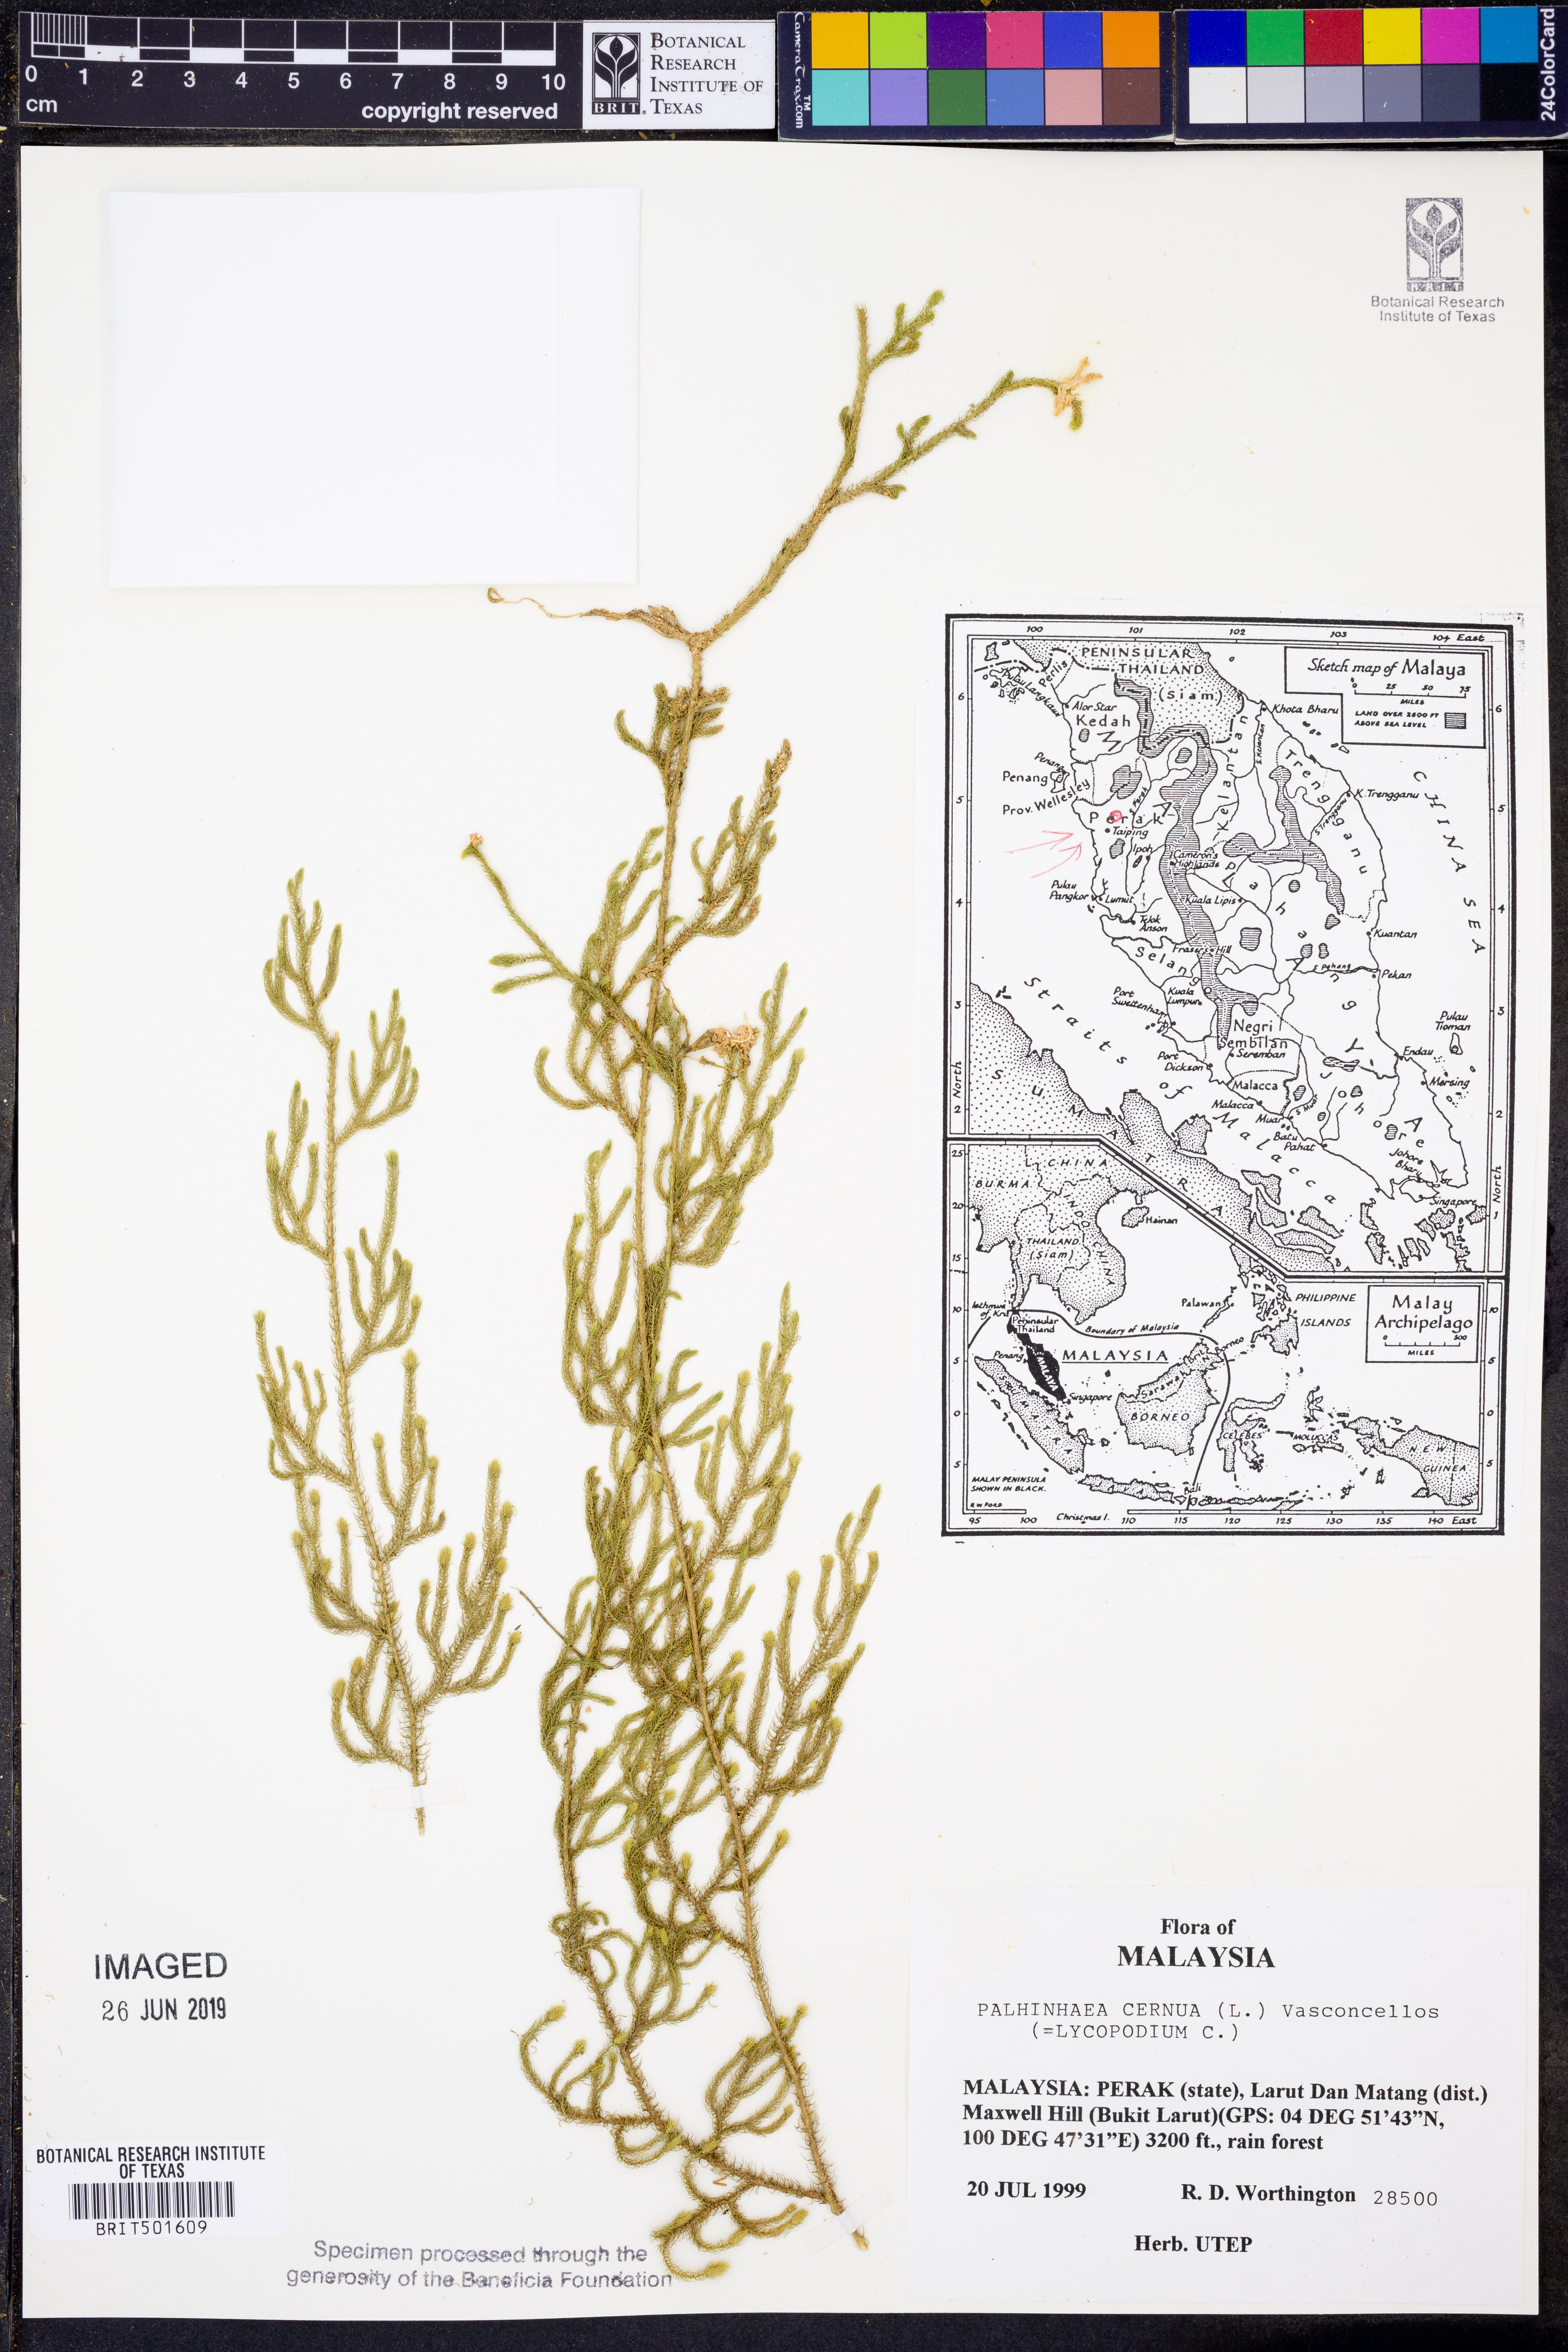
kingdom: Plantae
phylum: Tracheophyta
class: Lycopodiopsida
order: Lycopodiales
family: Lycopodiaceae
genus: Palhinhaea
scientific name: Palhinhaea cernua
